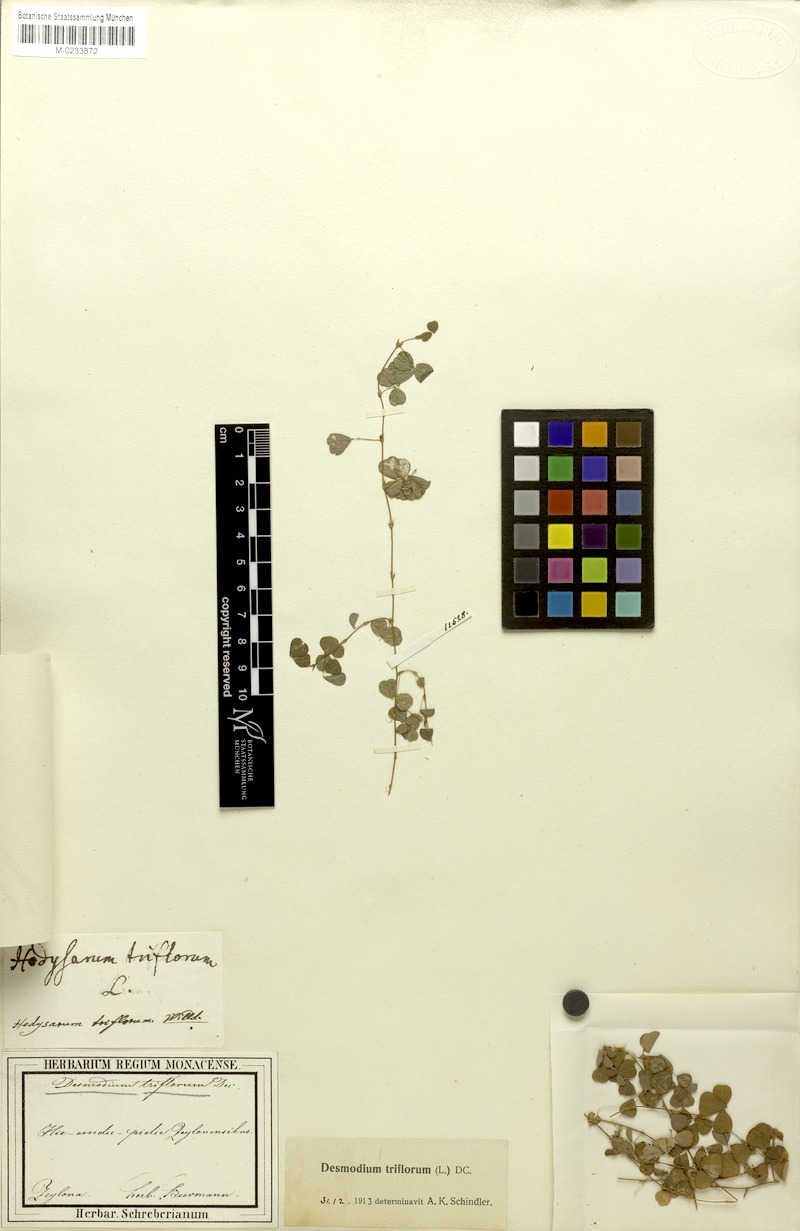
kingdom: Plantae
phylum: Tracheophyta
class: Magnoliopsida
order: Fabales
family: Fabaceae
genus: Grona
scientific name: Grona triflora
